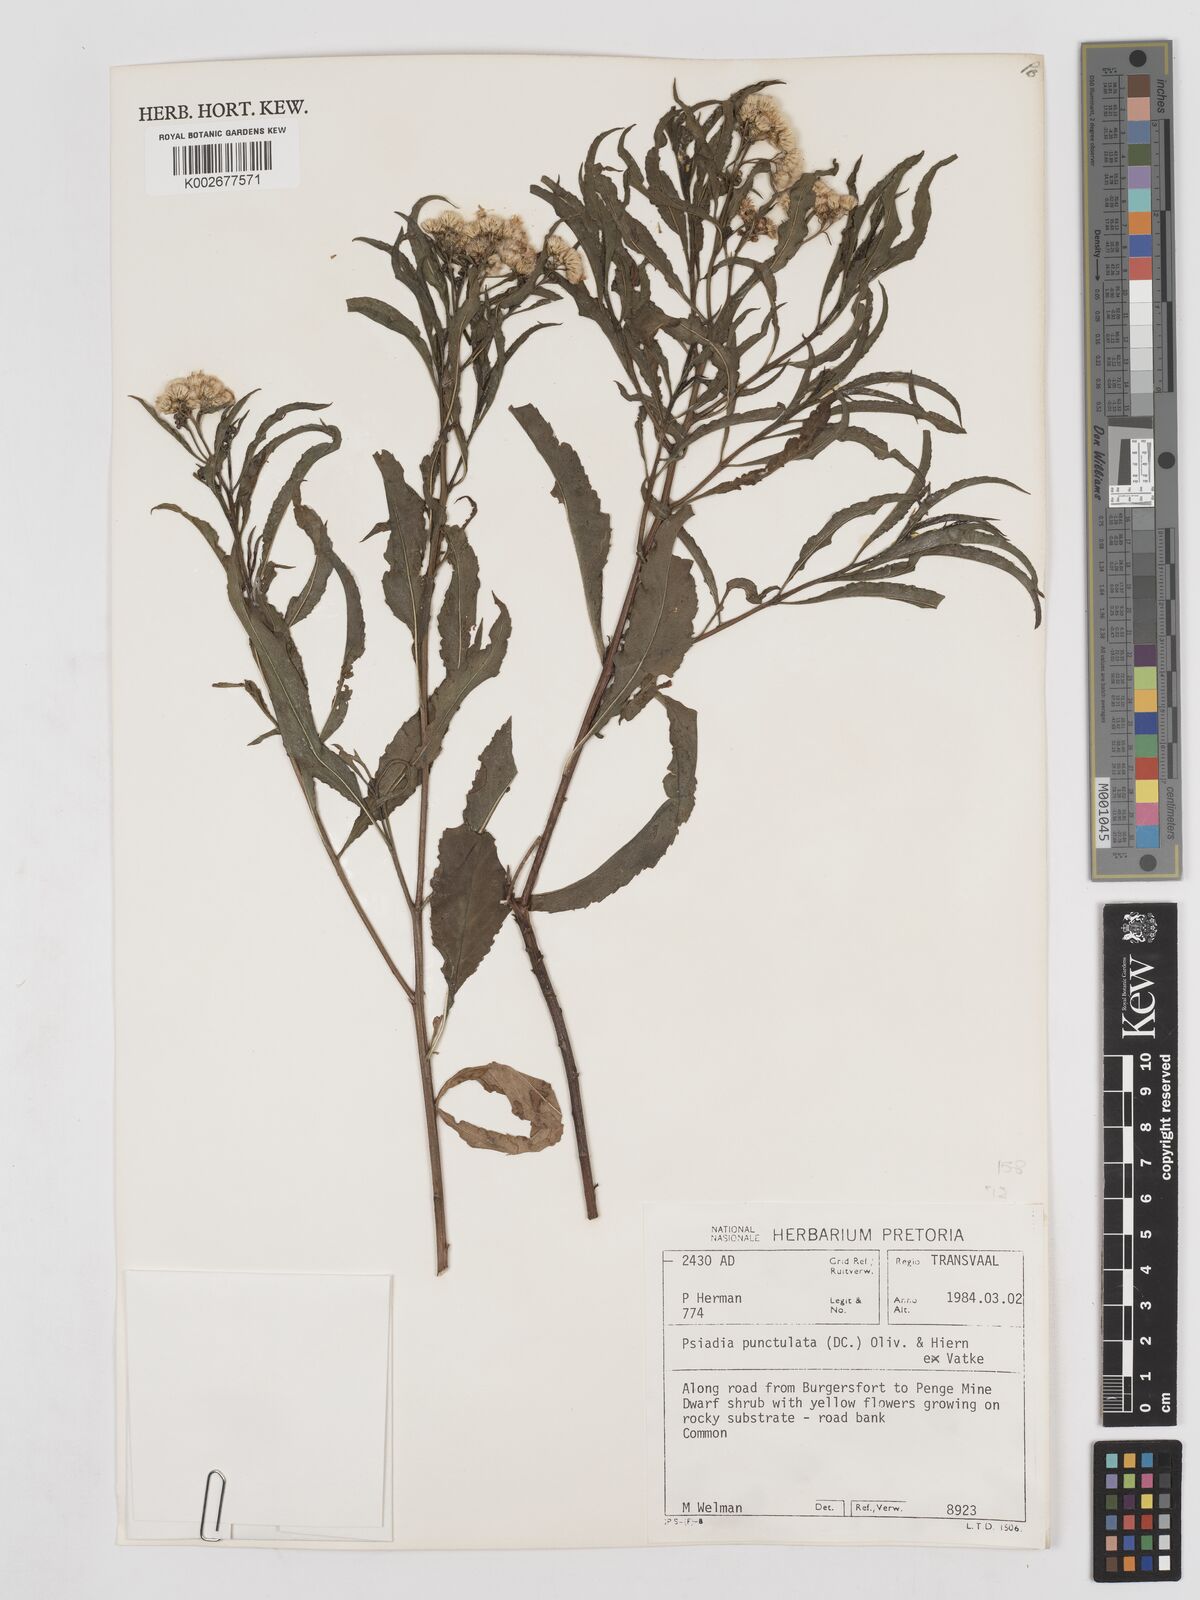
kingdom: Plantae
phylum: Tracheophyta
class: Magnoliopsida
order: Asterales
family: Asteraceae
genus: Psiadia
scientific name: Psiadia punctulata
